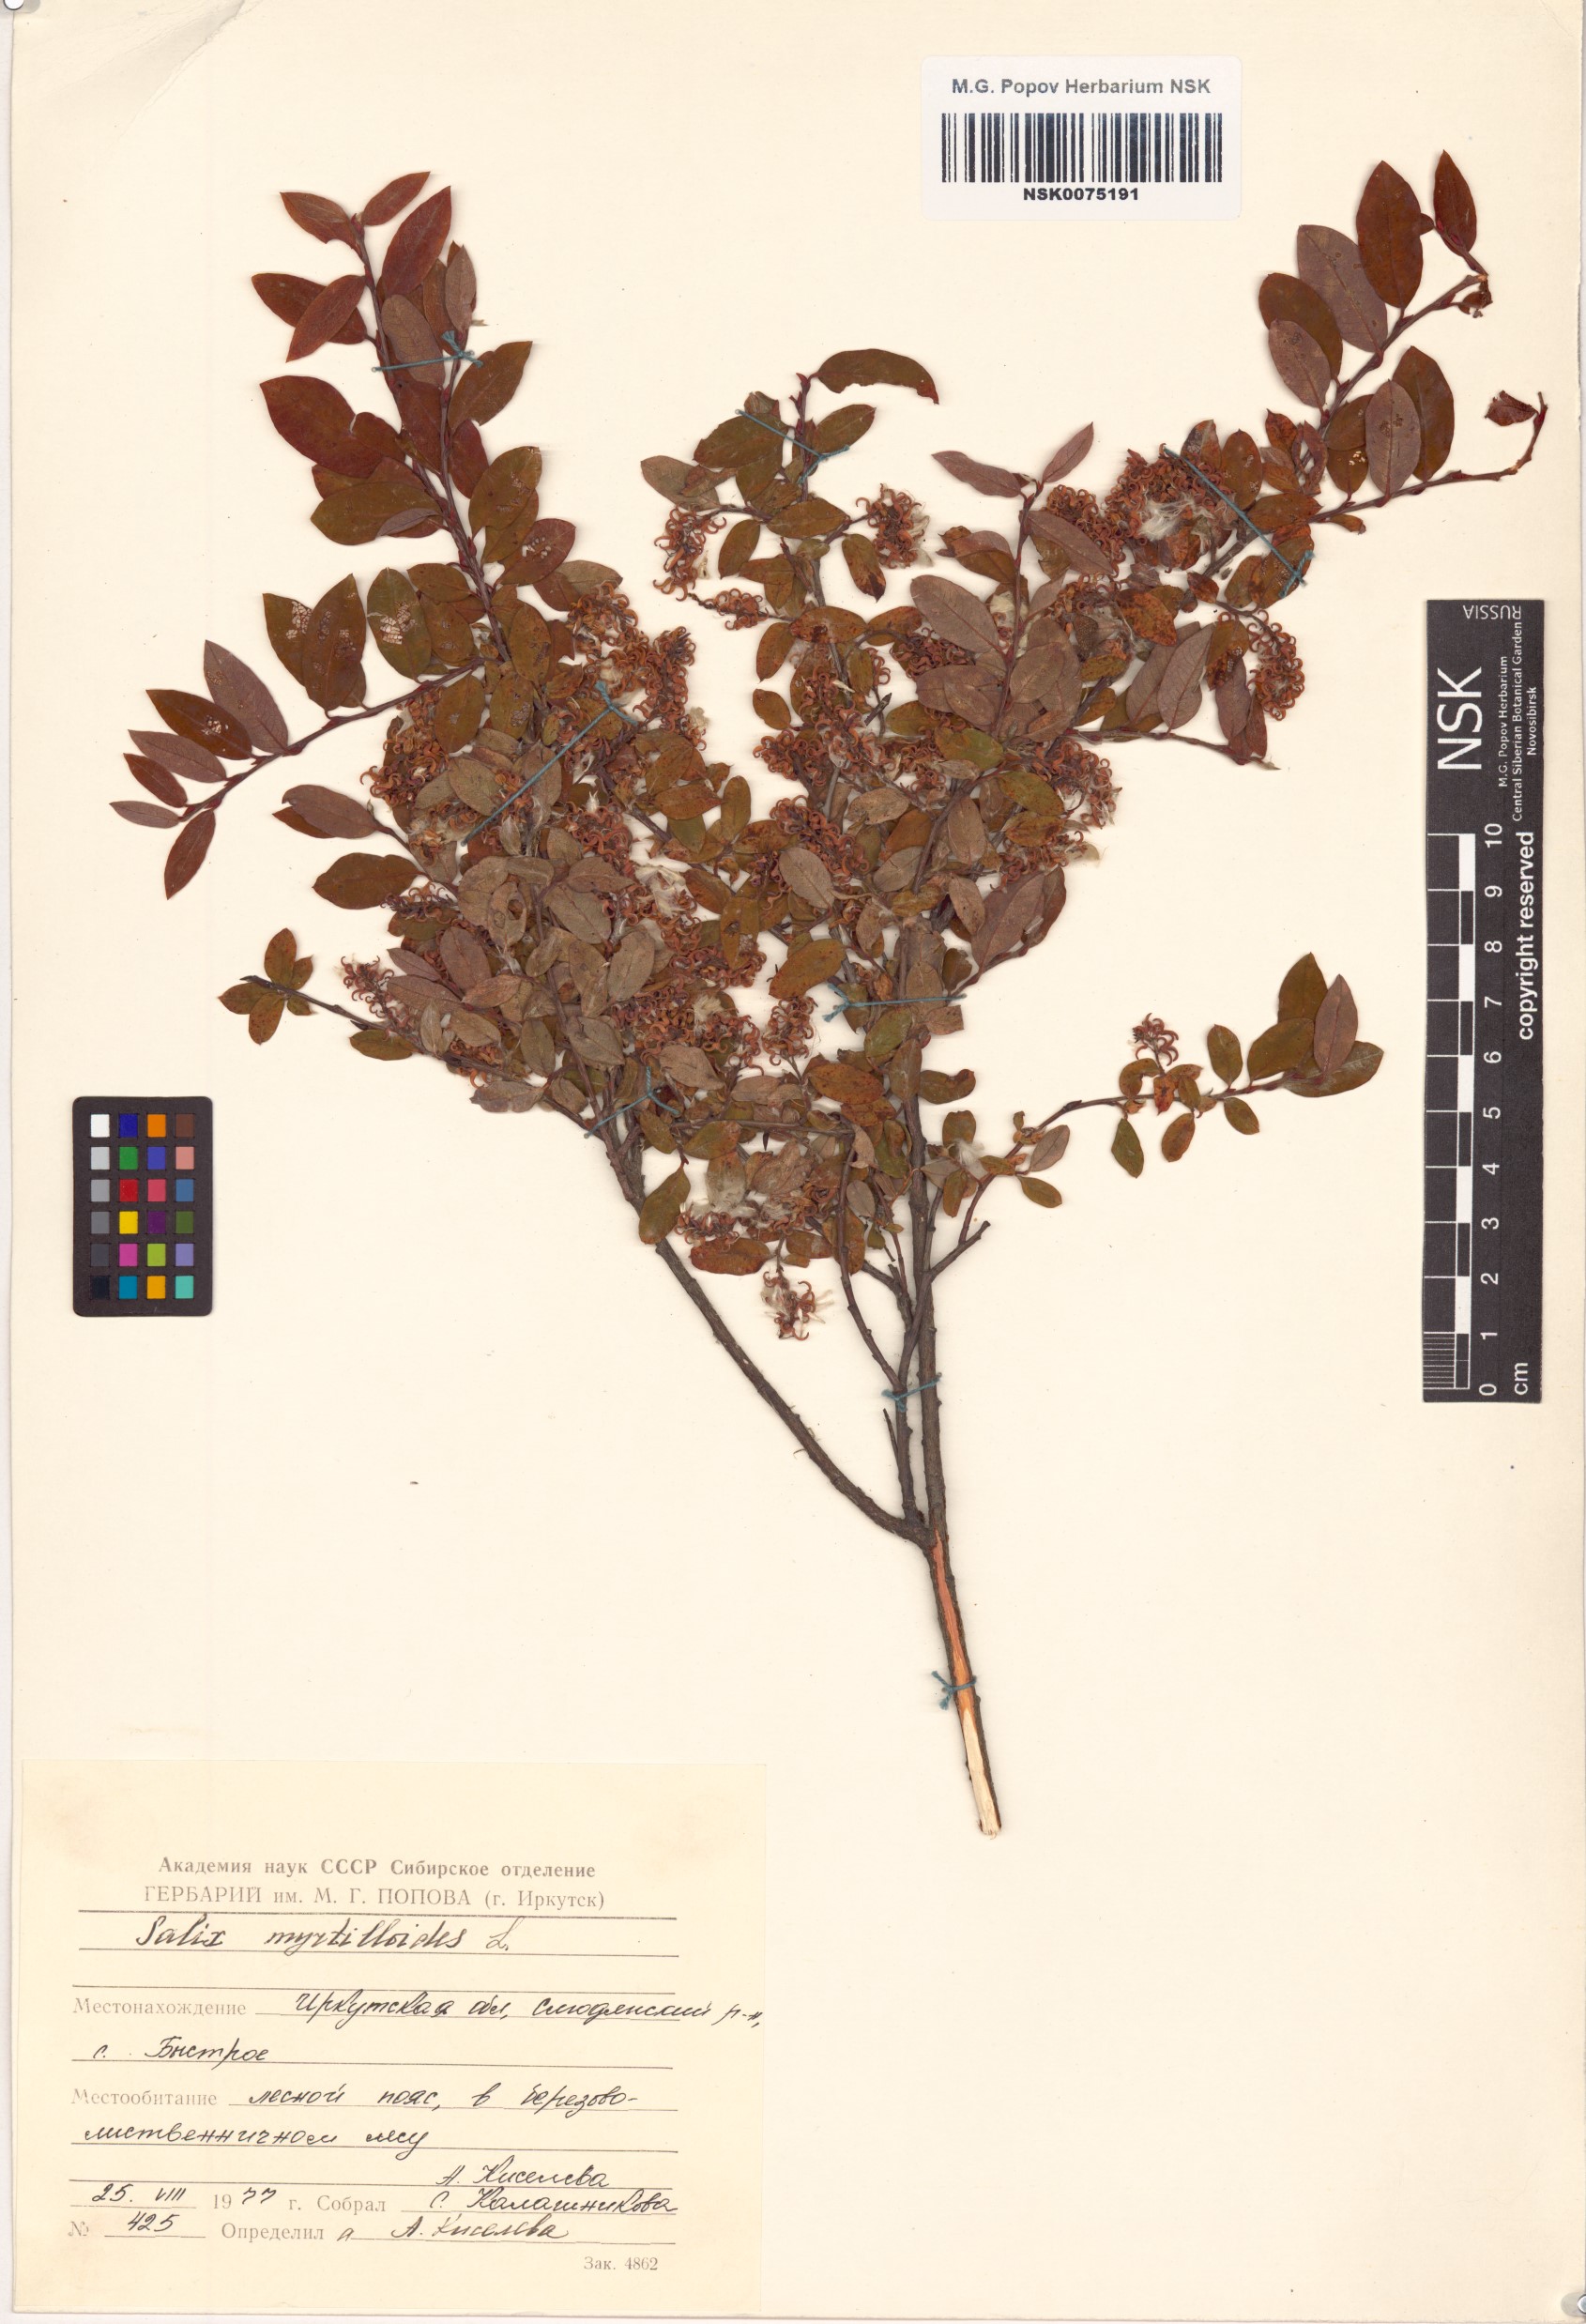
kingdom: Plantae
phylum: Tracheophyta
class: Magnoliopsida
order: Malpighiales
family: Salicaceae
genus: Salix
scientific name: Salix myrtilloides
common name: Myrtle-leaved willow
